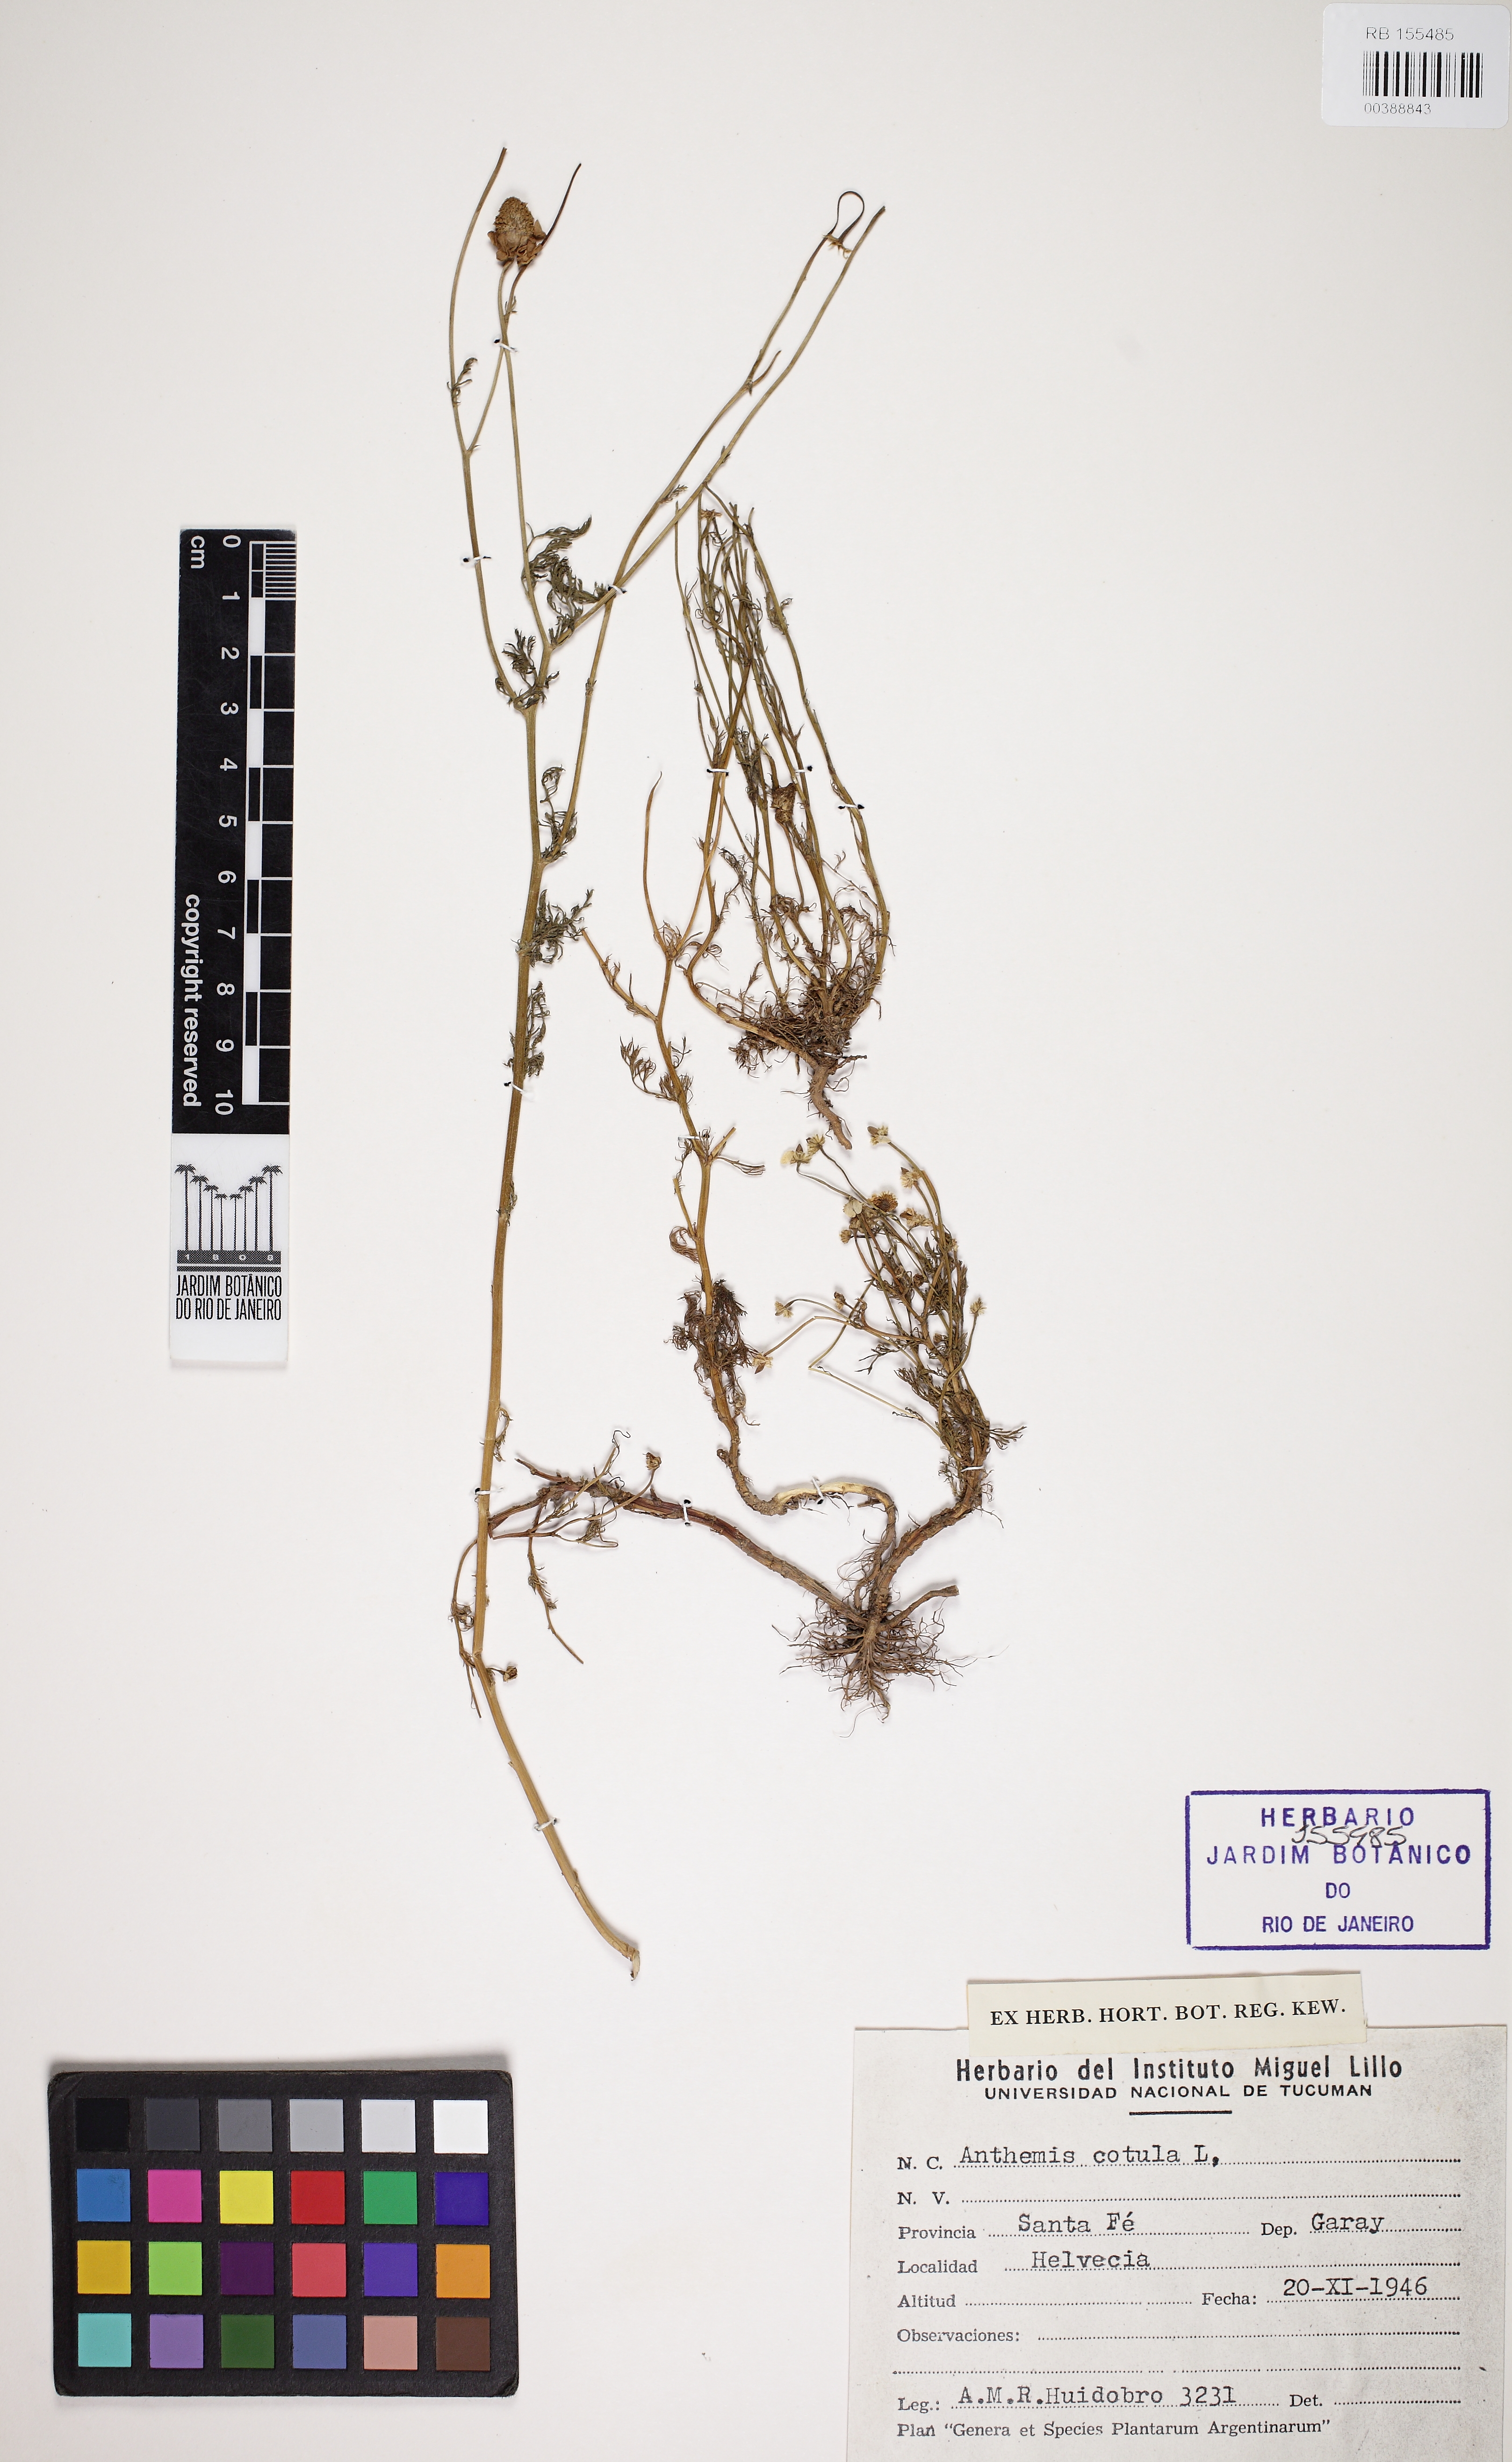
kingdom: Plantae
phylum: Tracheophyta
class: Magnoliopsida
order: Asterales
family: Asteraceae
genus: Anthemis
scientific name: Anthemis cotula
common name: Stinking chamomile
